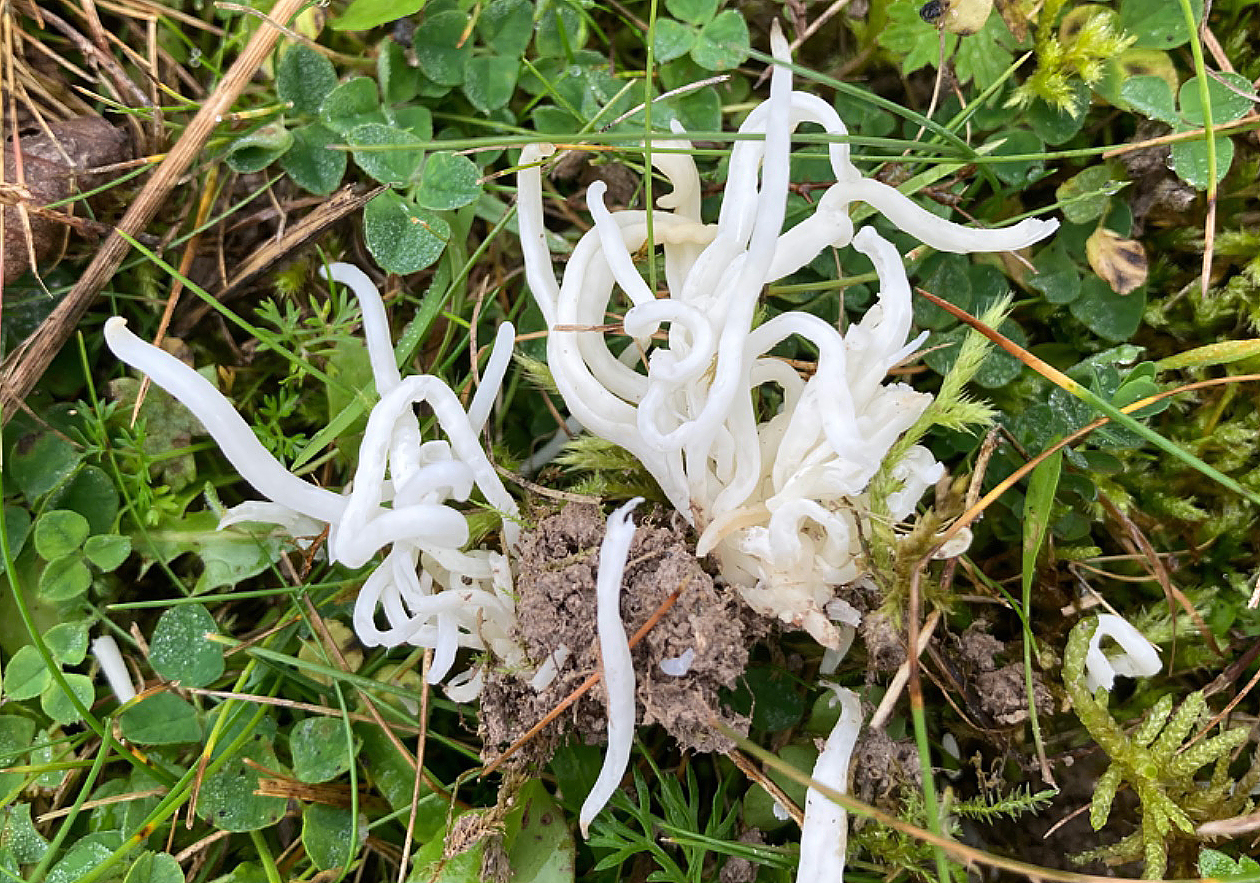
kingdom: Fungi
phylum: Basidiomycota
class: Agaricomycetes
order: Agaricales
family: Clavariaceae
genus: Clavaria
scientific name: Clavaria fragilis
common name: bugtet køllesvamp
